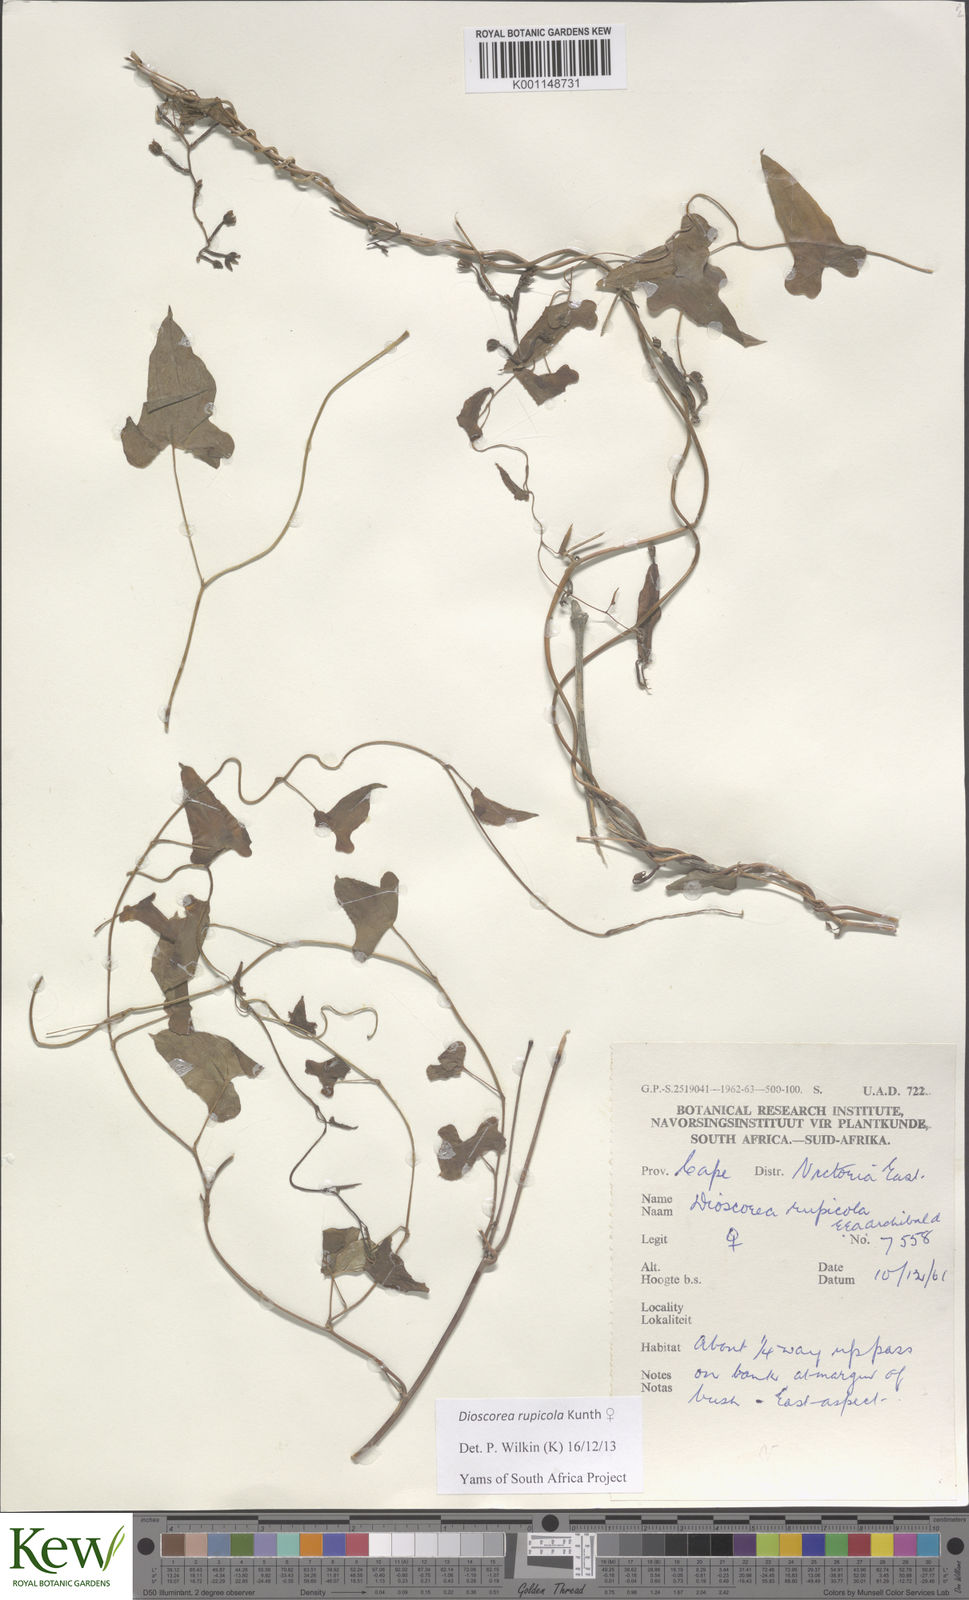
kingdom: Plantae
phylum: Tracheophyta
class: Liliopsida
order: Dioscoreales
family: Dioscoreaceae
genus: Dioscorea
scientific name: Dioscorea rupicola
